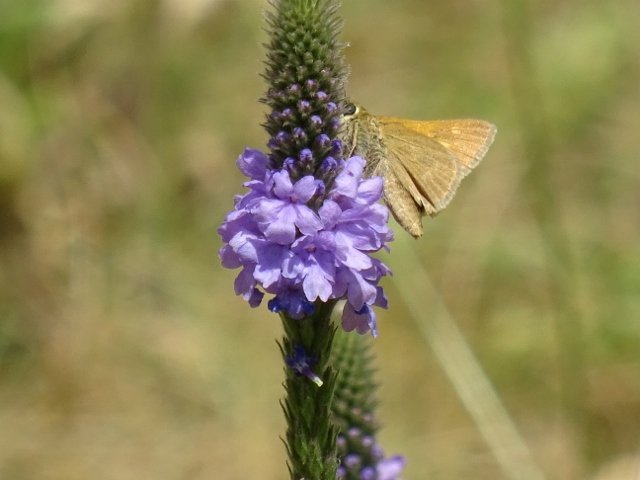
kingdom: Animalia
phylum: Arthropoda
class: Insecta
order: Lepidoptera
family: Hesperiidae
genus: Polites
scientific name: Polites themistocles
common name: Tawny-edged Skipper
